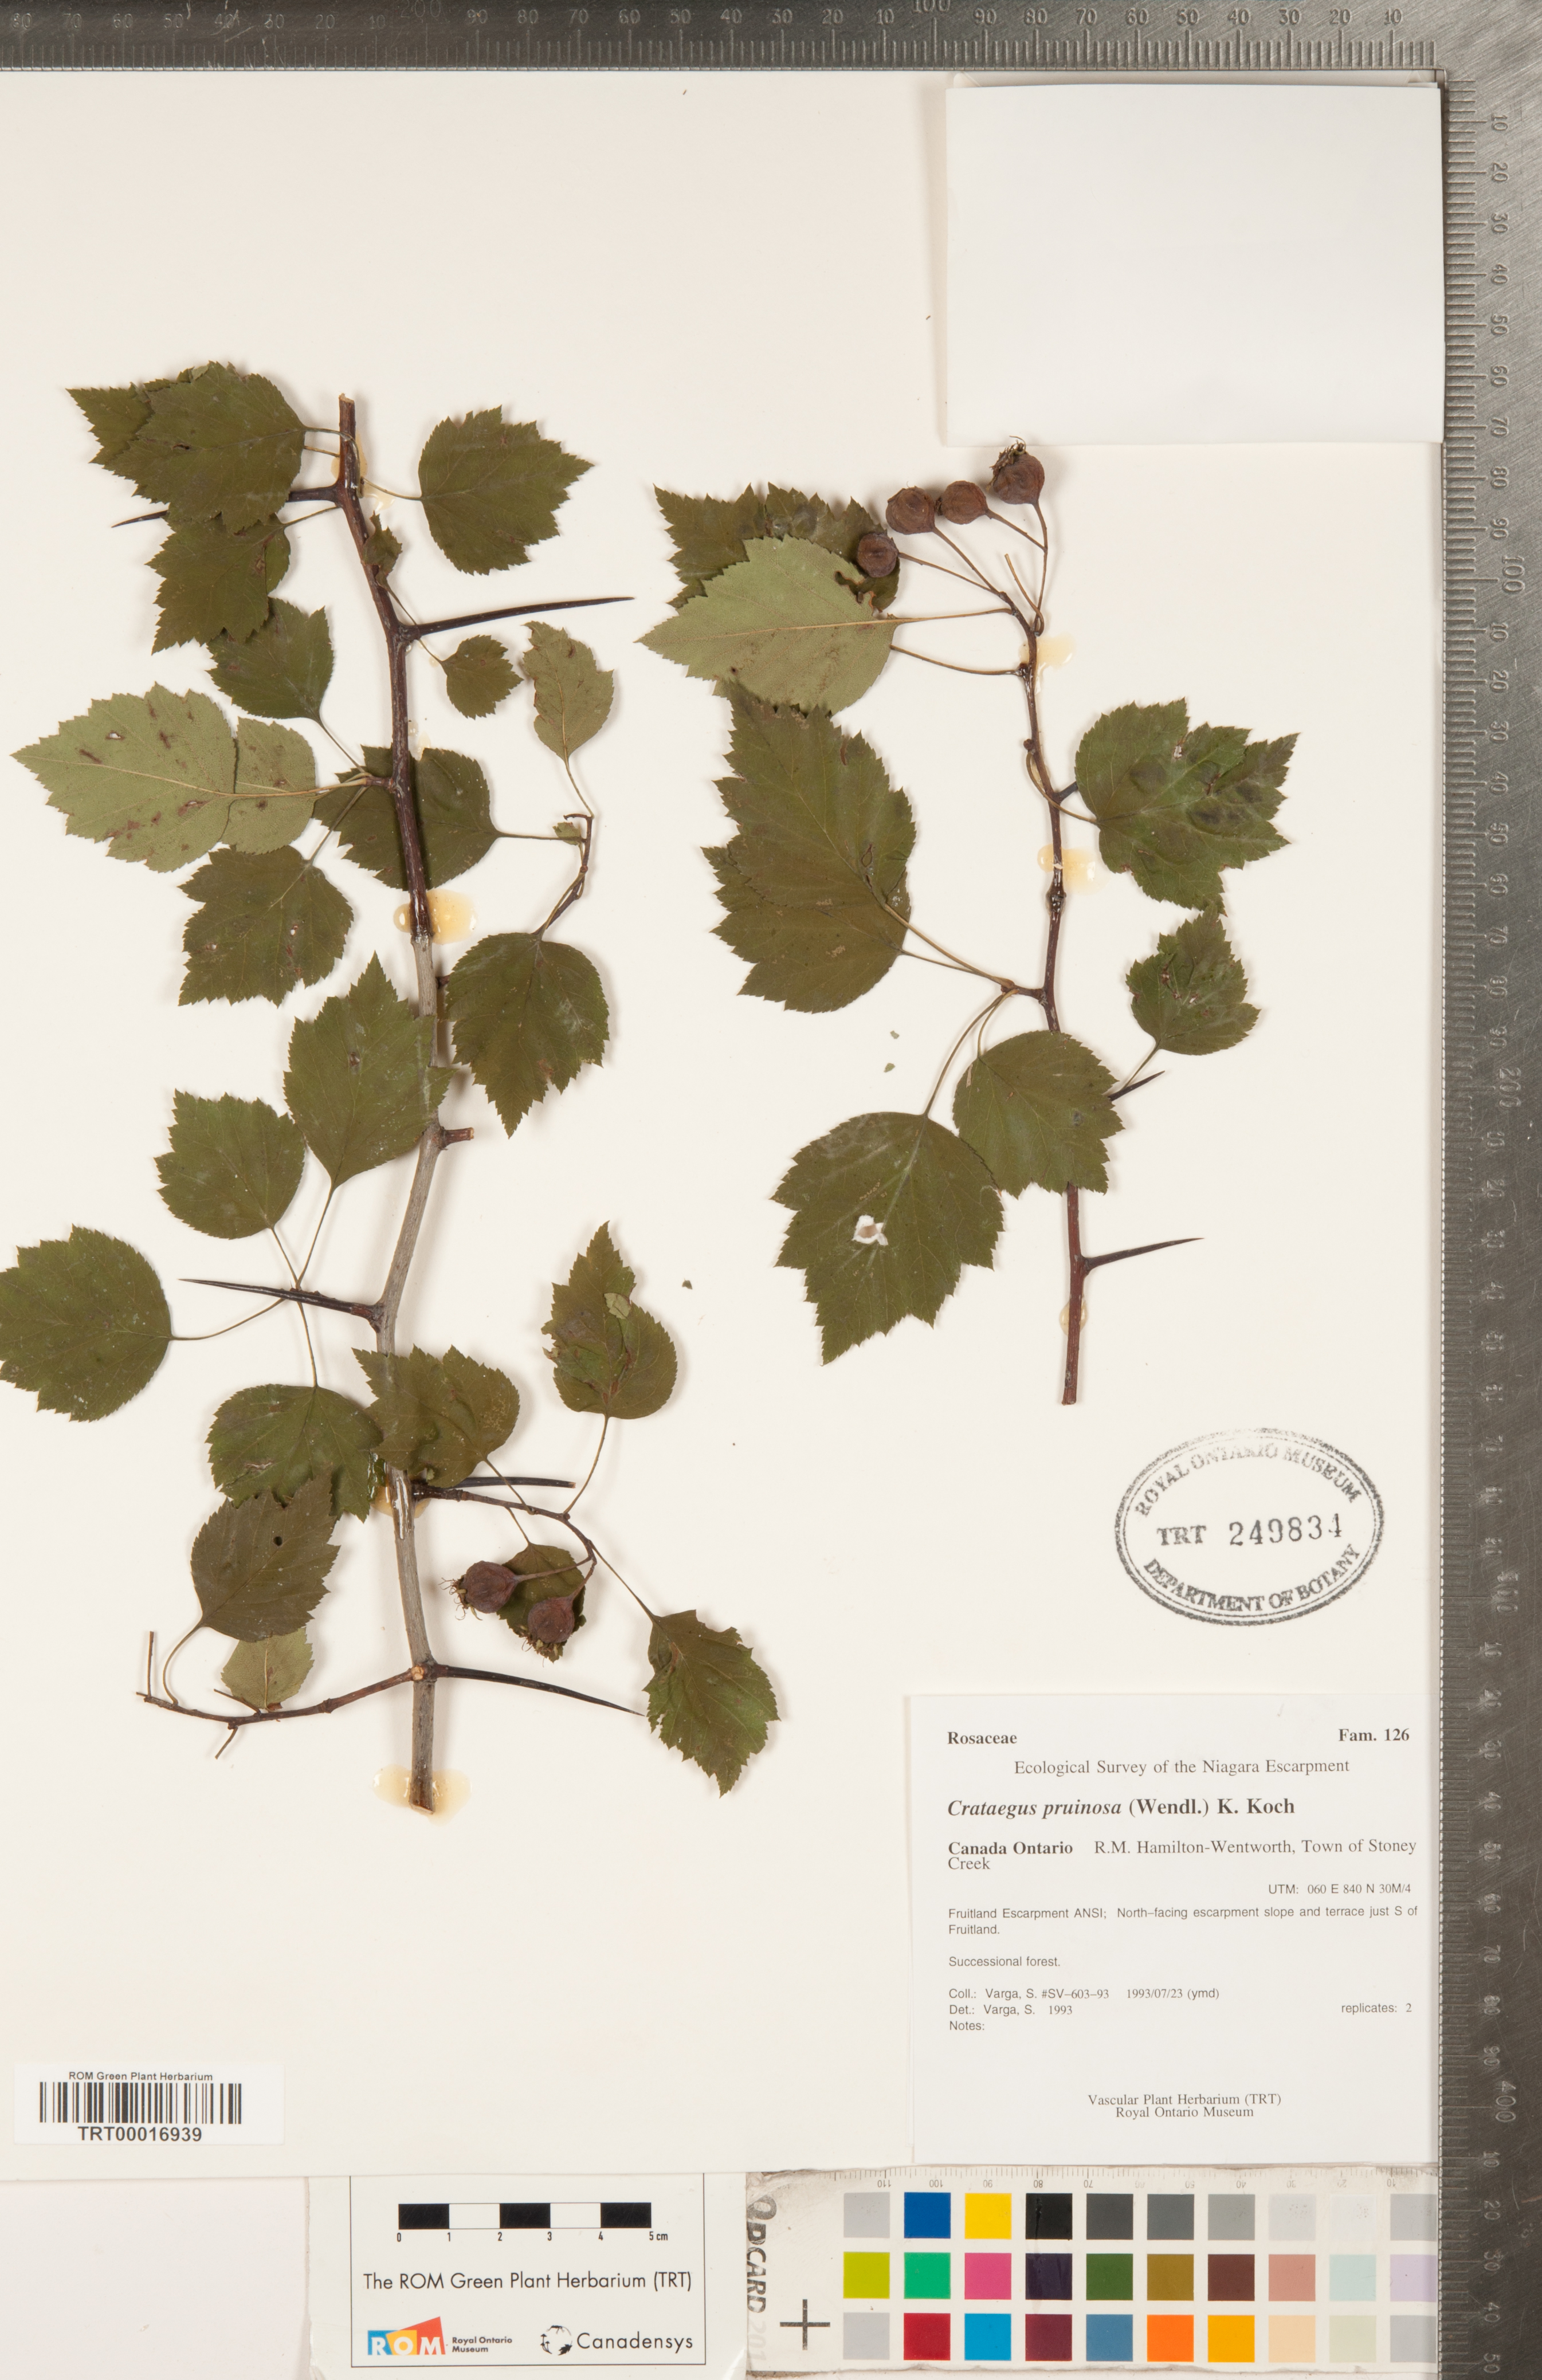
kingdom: Plantae
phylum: Tracheophyta
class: Magnoliopsida
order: Rosales
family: Rosaceae
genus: Crataegus
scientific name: Crataegus pruinosa
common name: Waxy-fruit hawthorn
